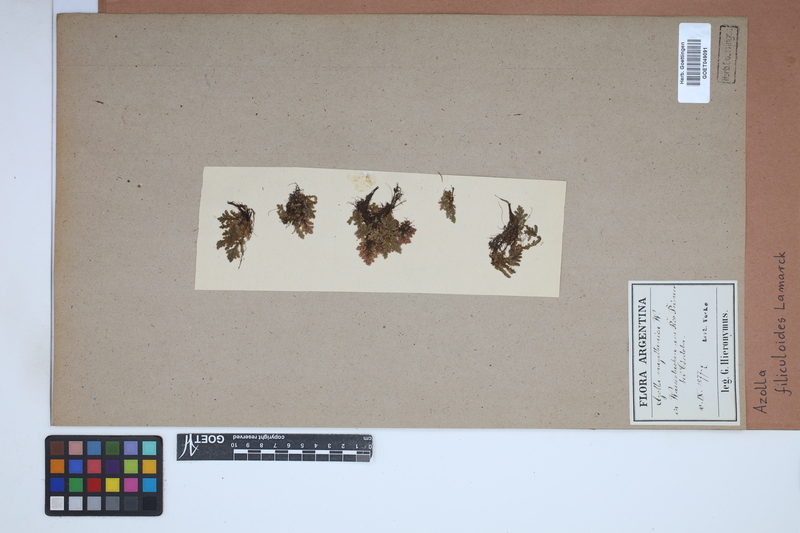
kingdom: Plantae
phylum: Tracheophyta
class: Polypodiopsida
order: Salviniales
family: Salviniaceae
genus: Azolla
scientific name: Azolla filiculoides
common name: Water fern
